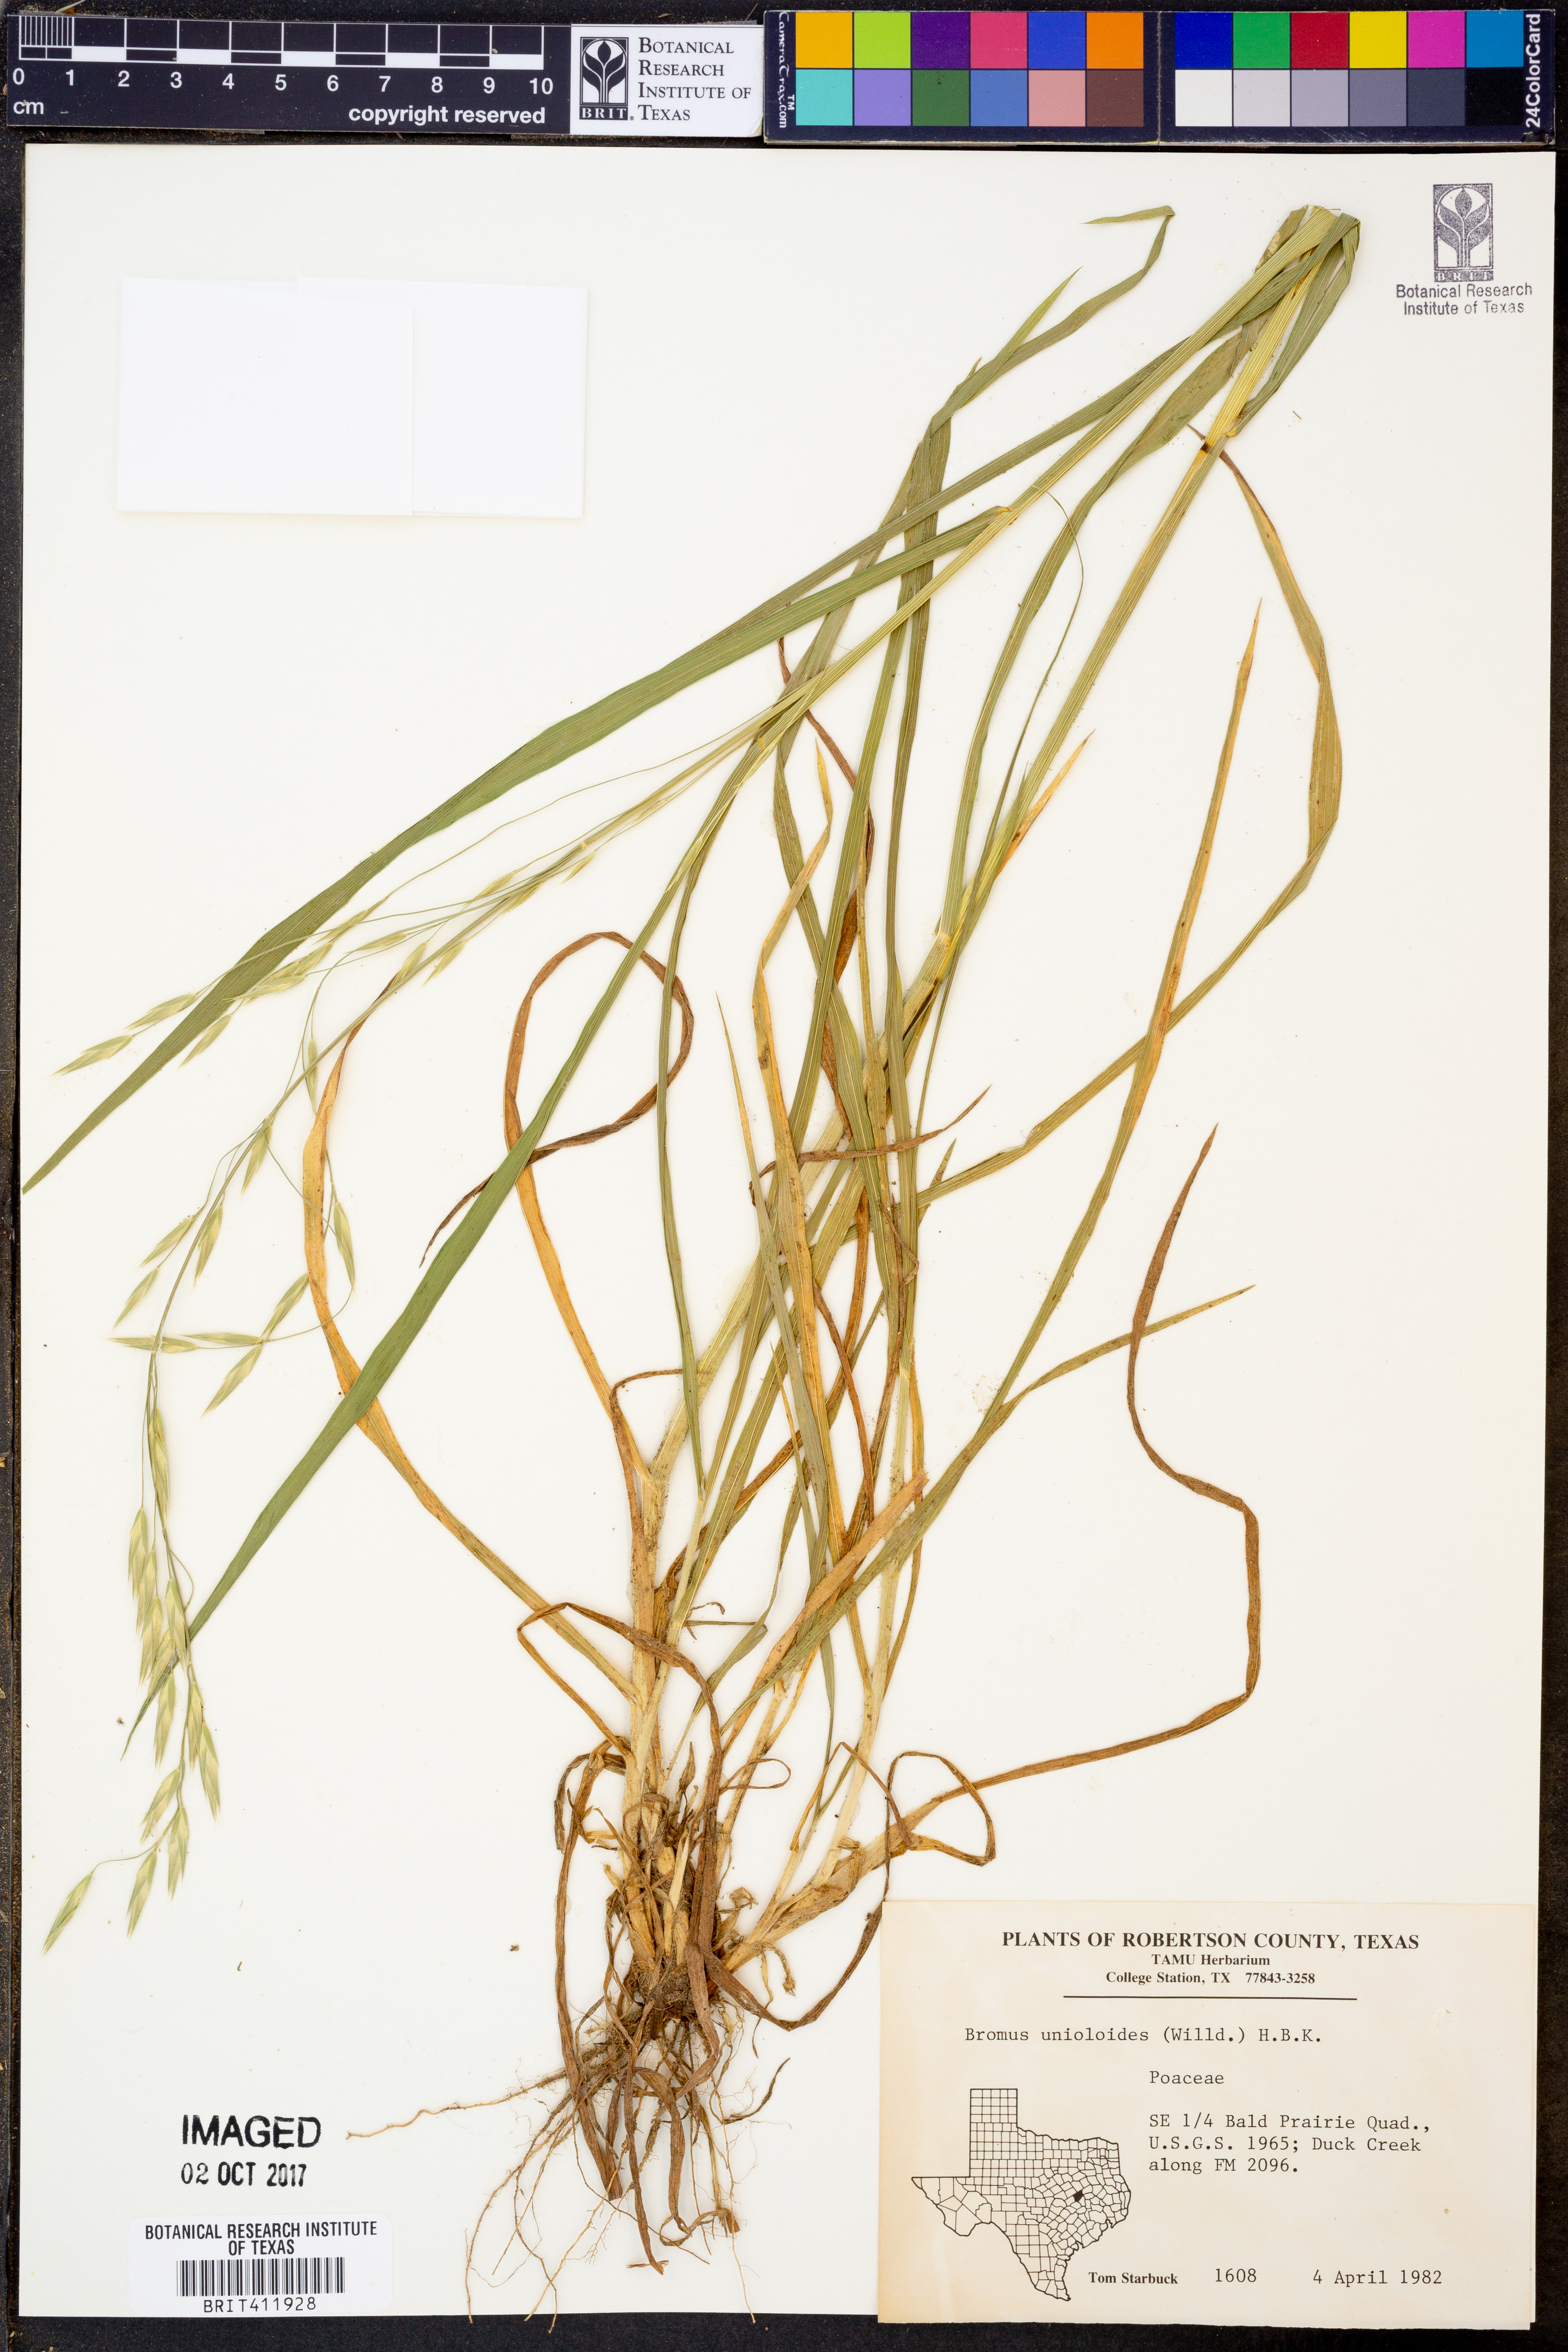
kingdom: Plantae
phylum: Tracheophyta
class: Liliopsida
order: Poales
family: Poaceae
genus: Bromus
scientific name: Bromus catharticus
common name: Rescuegrass
